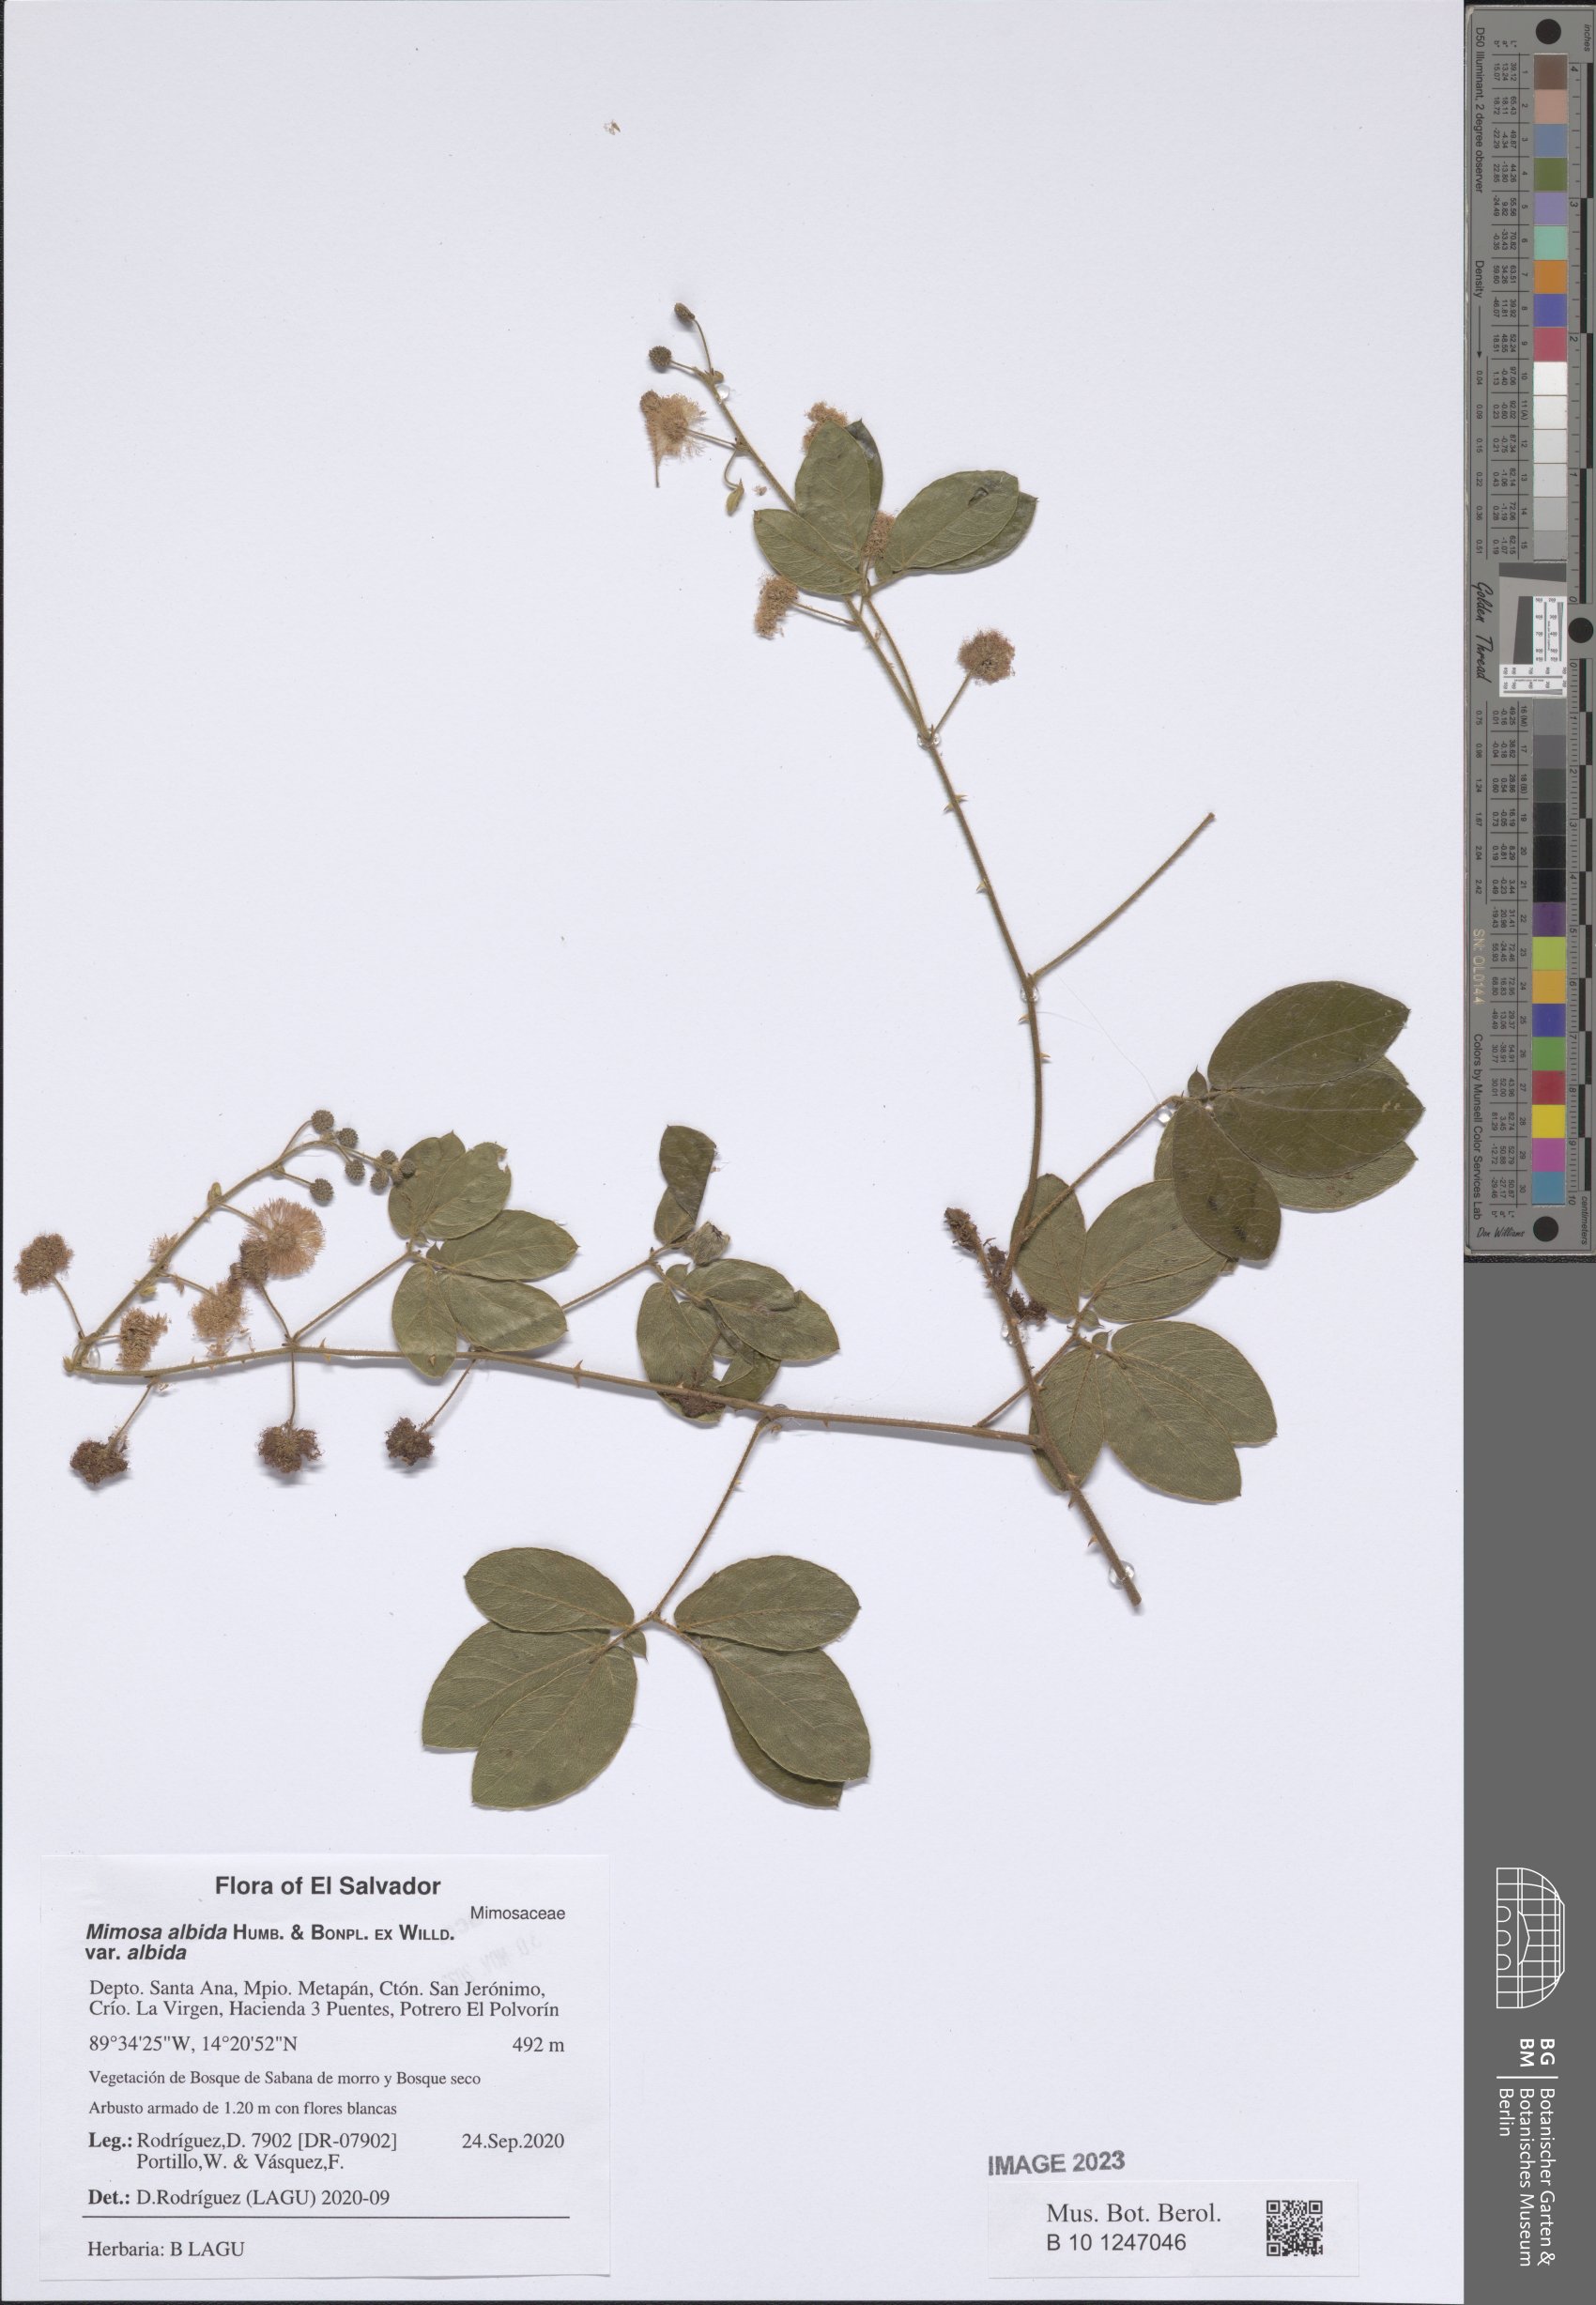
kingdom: Plantae
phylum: Tracheophyta
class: Magnoliopsida
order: Fabales
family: Fabaceae
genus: Mimosa
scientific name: Mimosa albida
